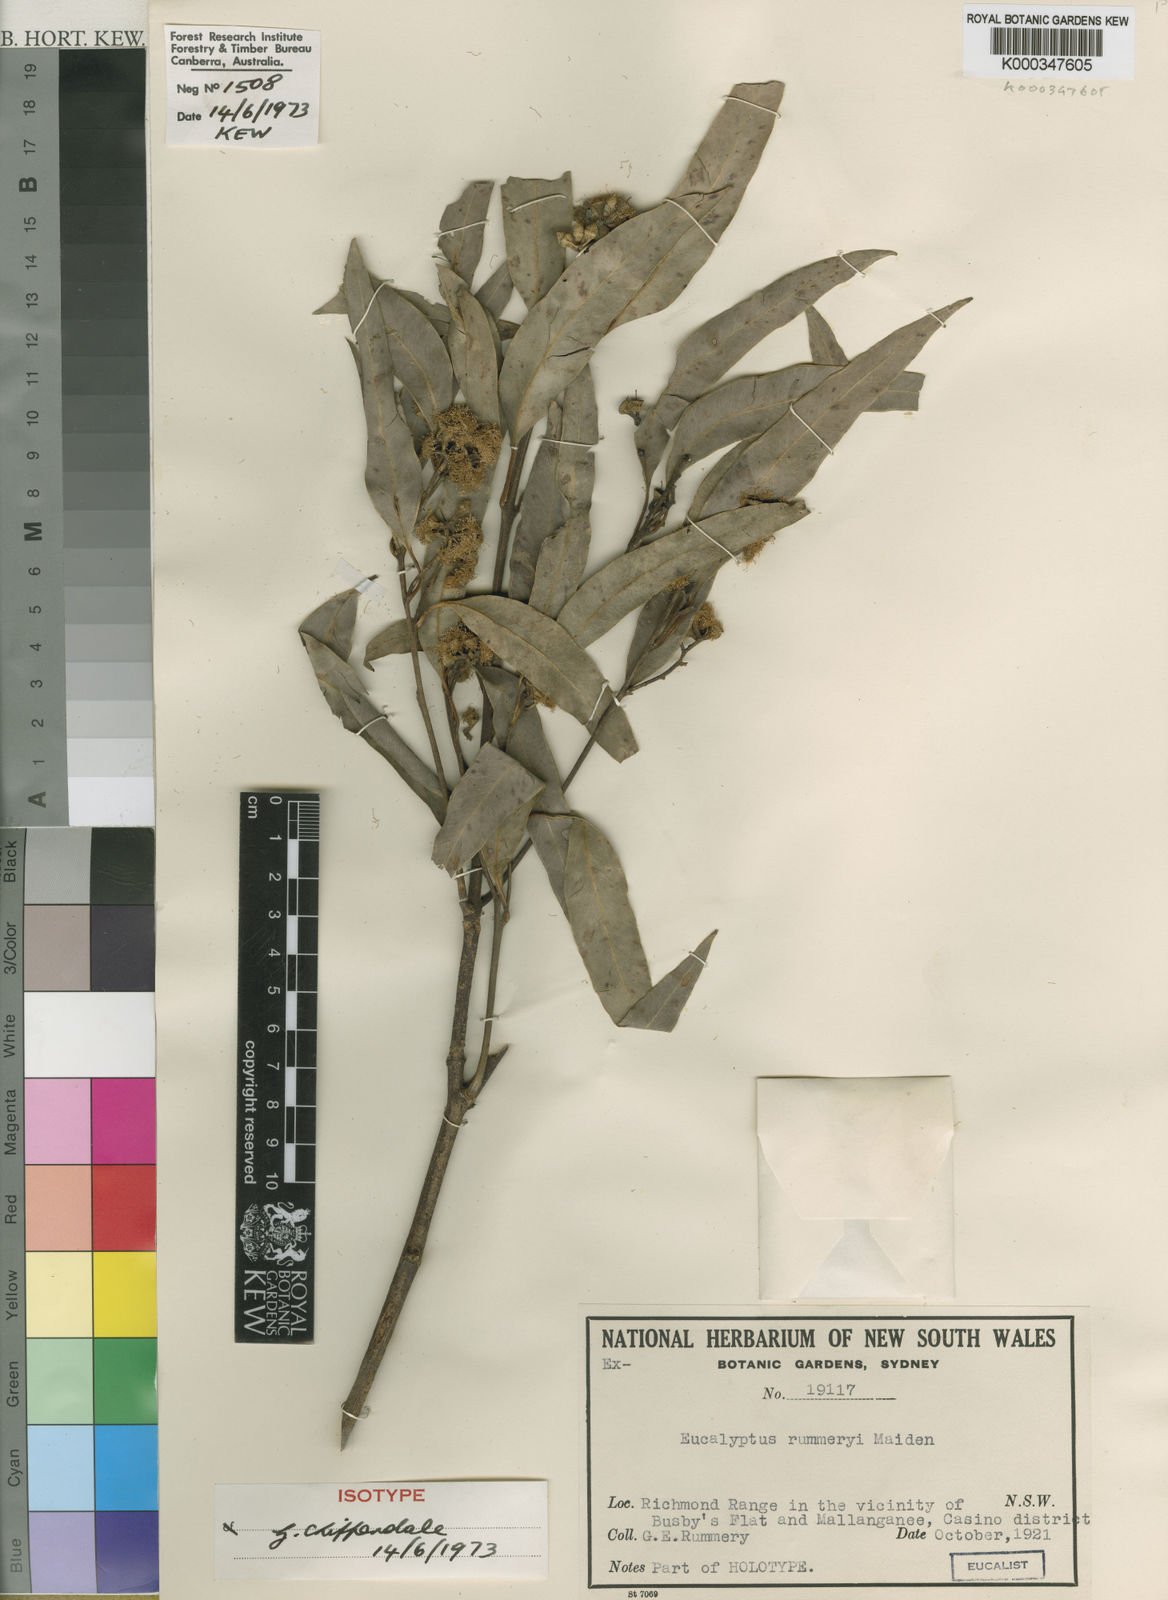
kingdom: Plantae
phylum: Tracheophyta
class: Magnoliopsida
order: Myrtales
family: Myrtaceae
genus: Eucalyptus
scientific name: Eucalyptus rummeryi
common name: Rummery's box
